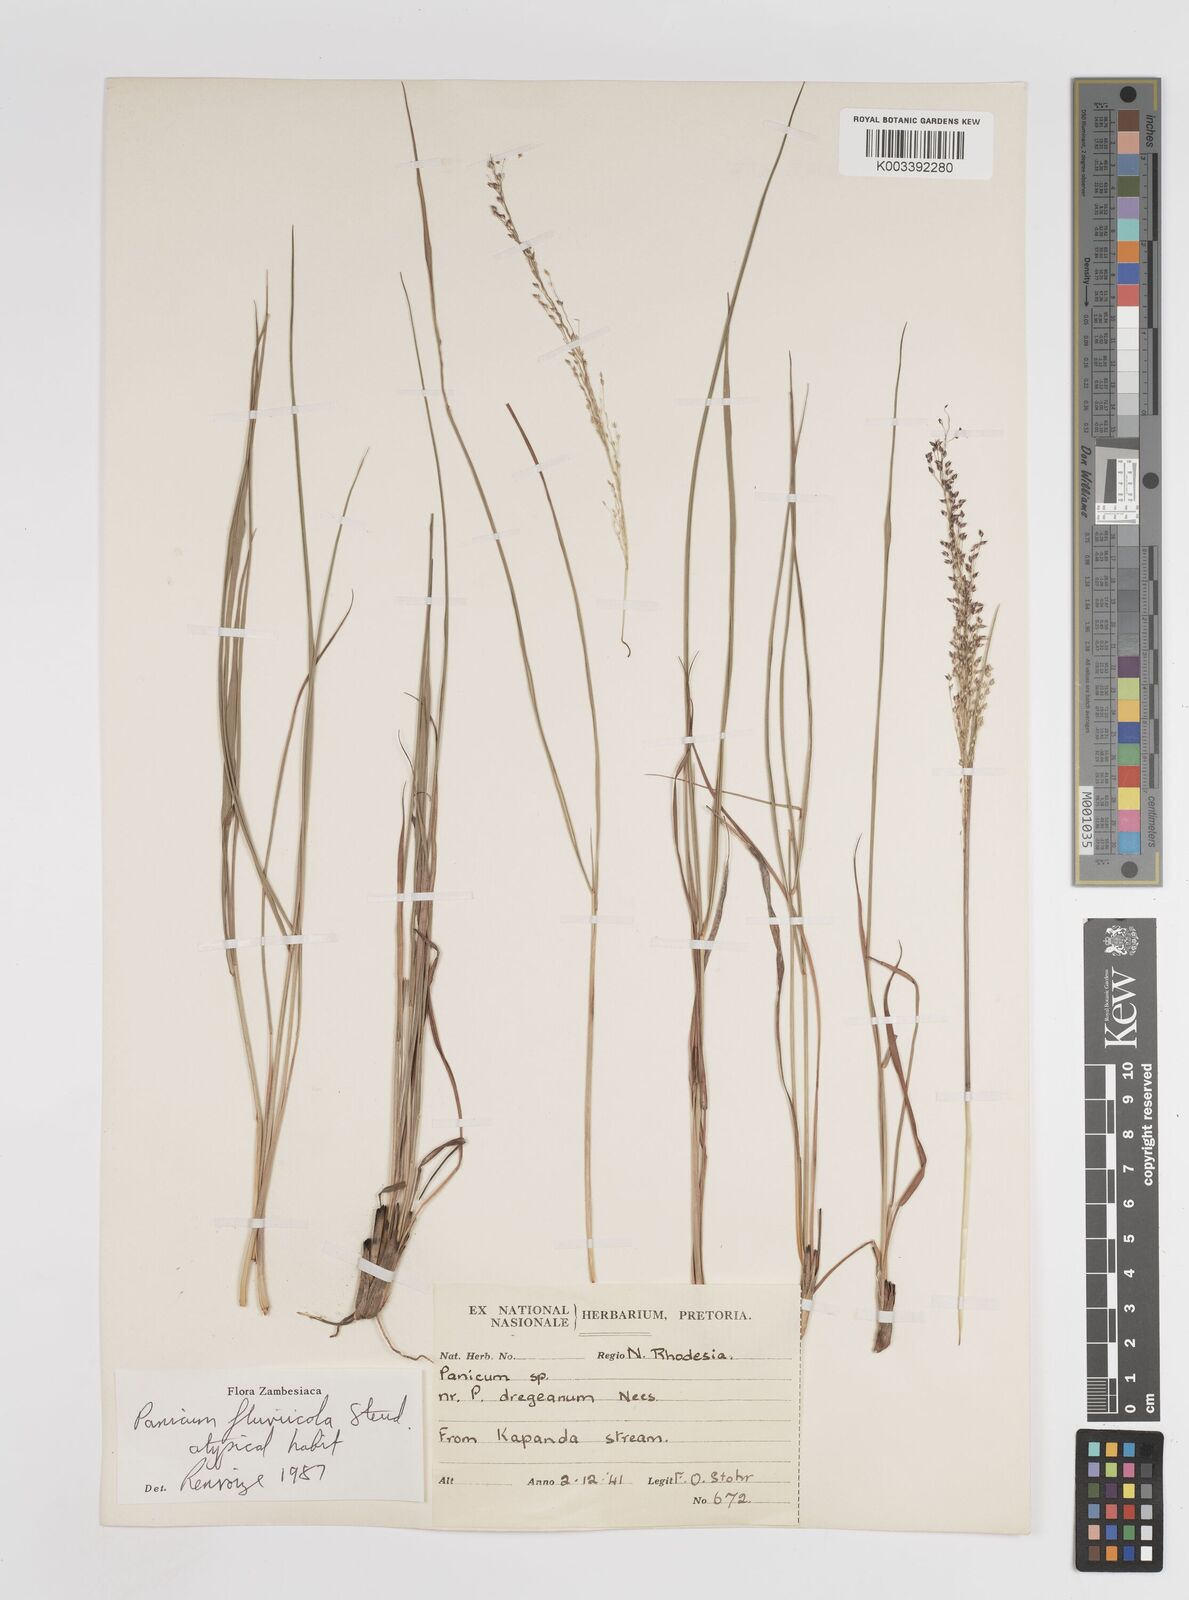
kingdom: Plantae
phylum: Tracheophyta
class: Liliopsida
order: Poales
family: Poaceae
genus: Panicum
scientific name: Panicum fluviicola
